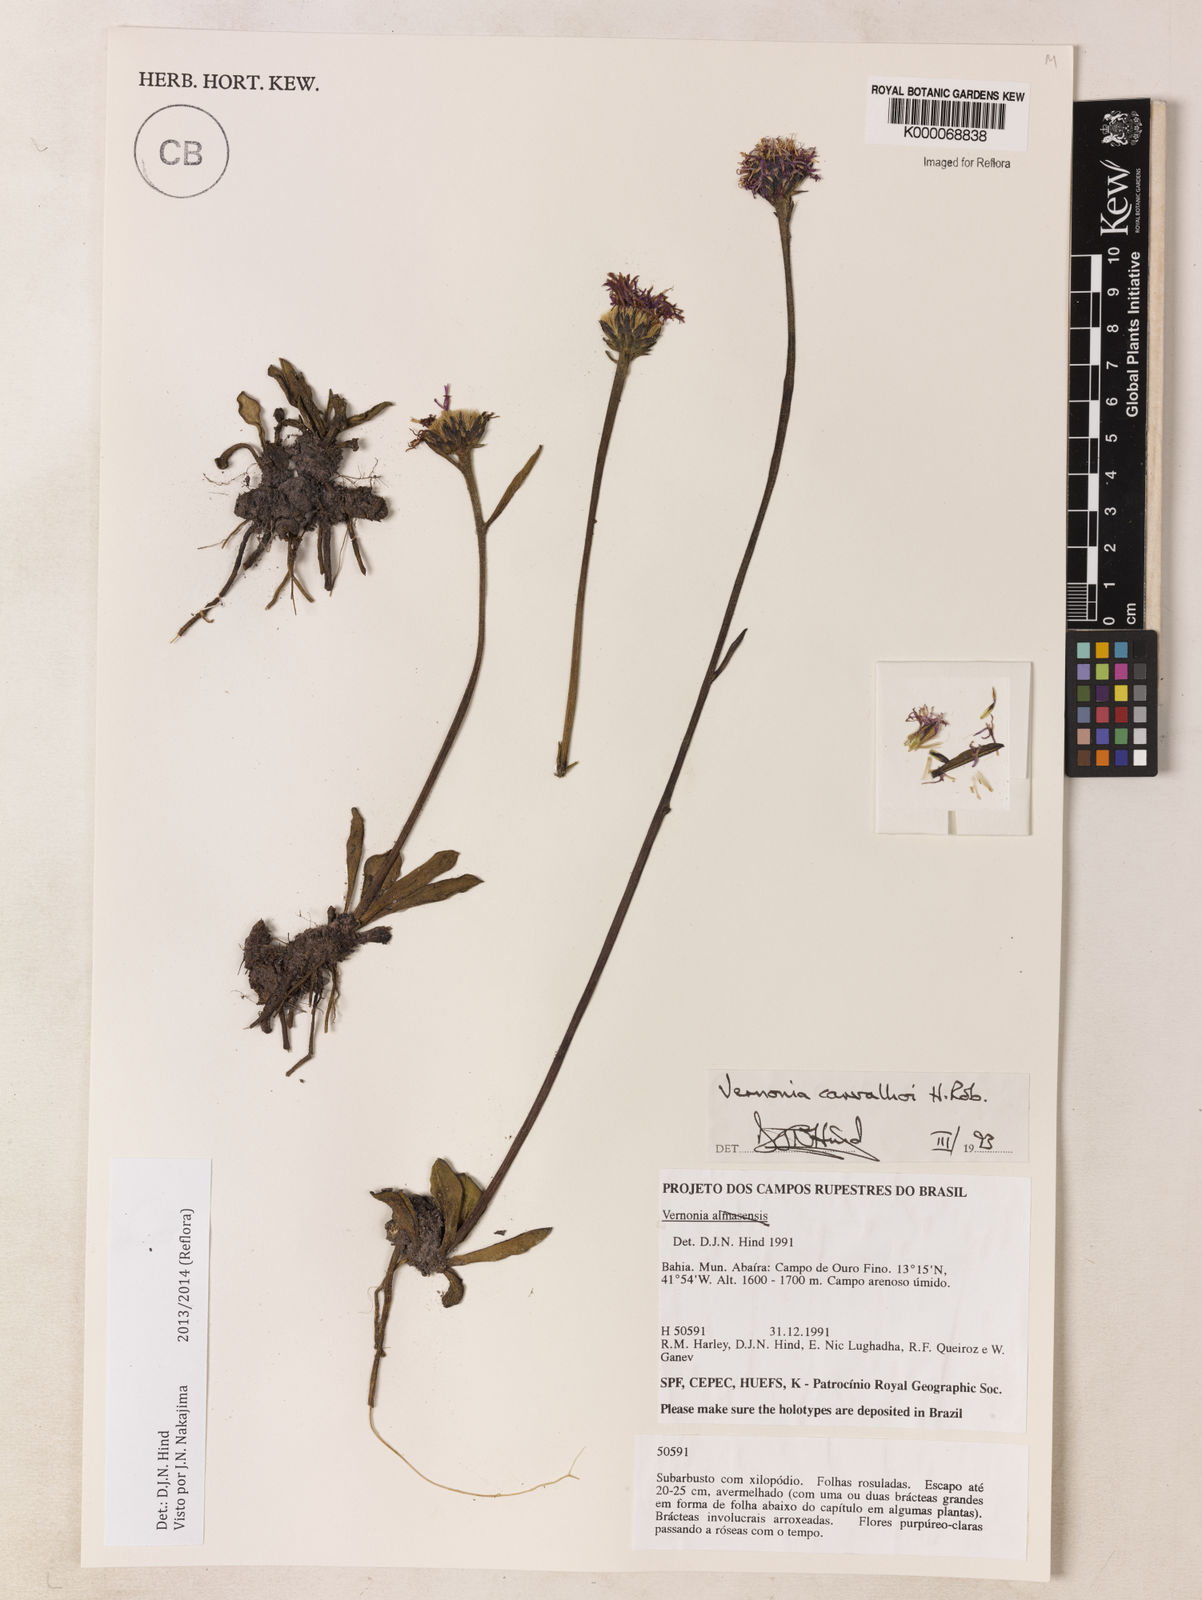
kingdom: Plantae
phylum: Tracheophyta
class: Magnoliopsida
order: Asterales
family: Asteraceae
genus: Lessingianthus
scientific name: Lessingianthus carvalhoi
